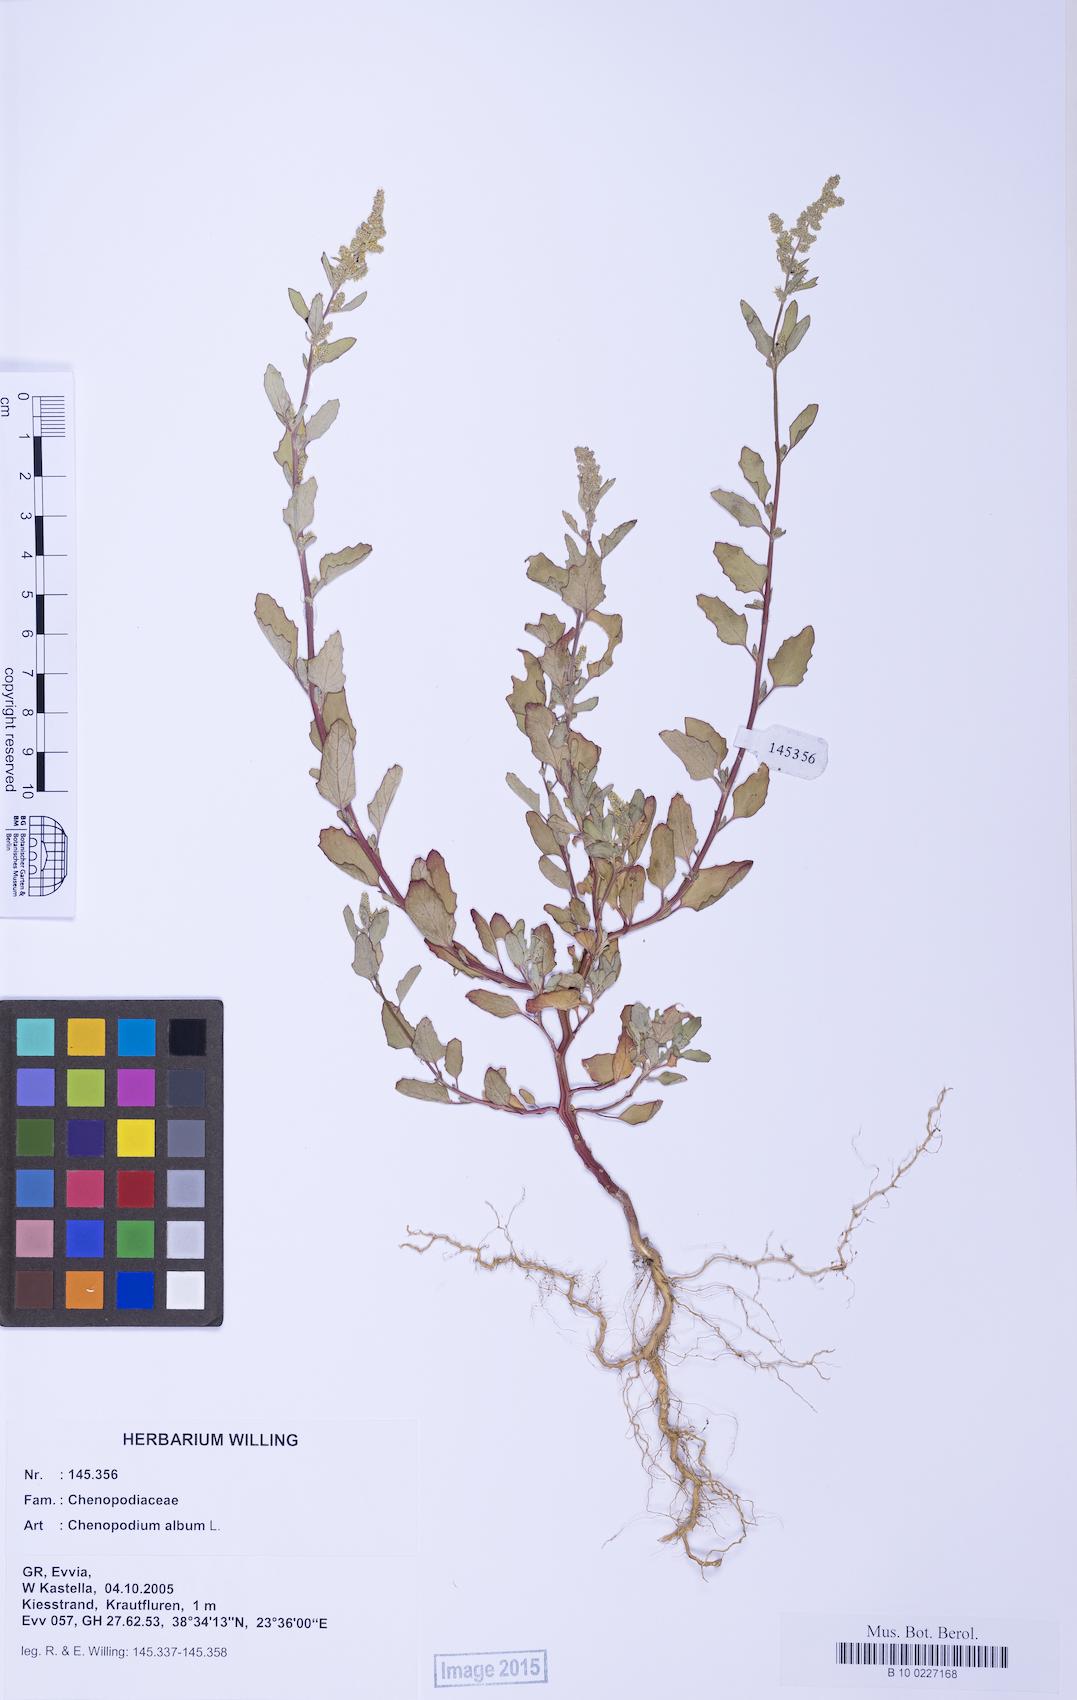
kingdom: Plantae
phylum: Tracheophyta
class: Magnoliopsida
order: Caryophyllales
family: Amaranthaceae
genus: Chenopodium
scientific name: Chenopodium album
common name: Fat-hen
